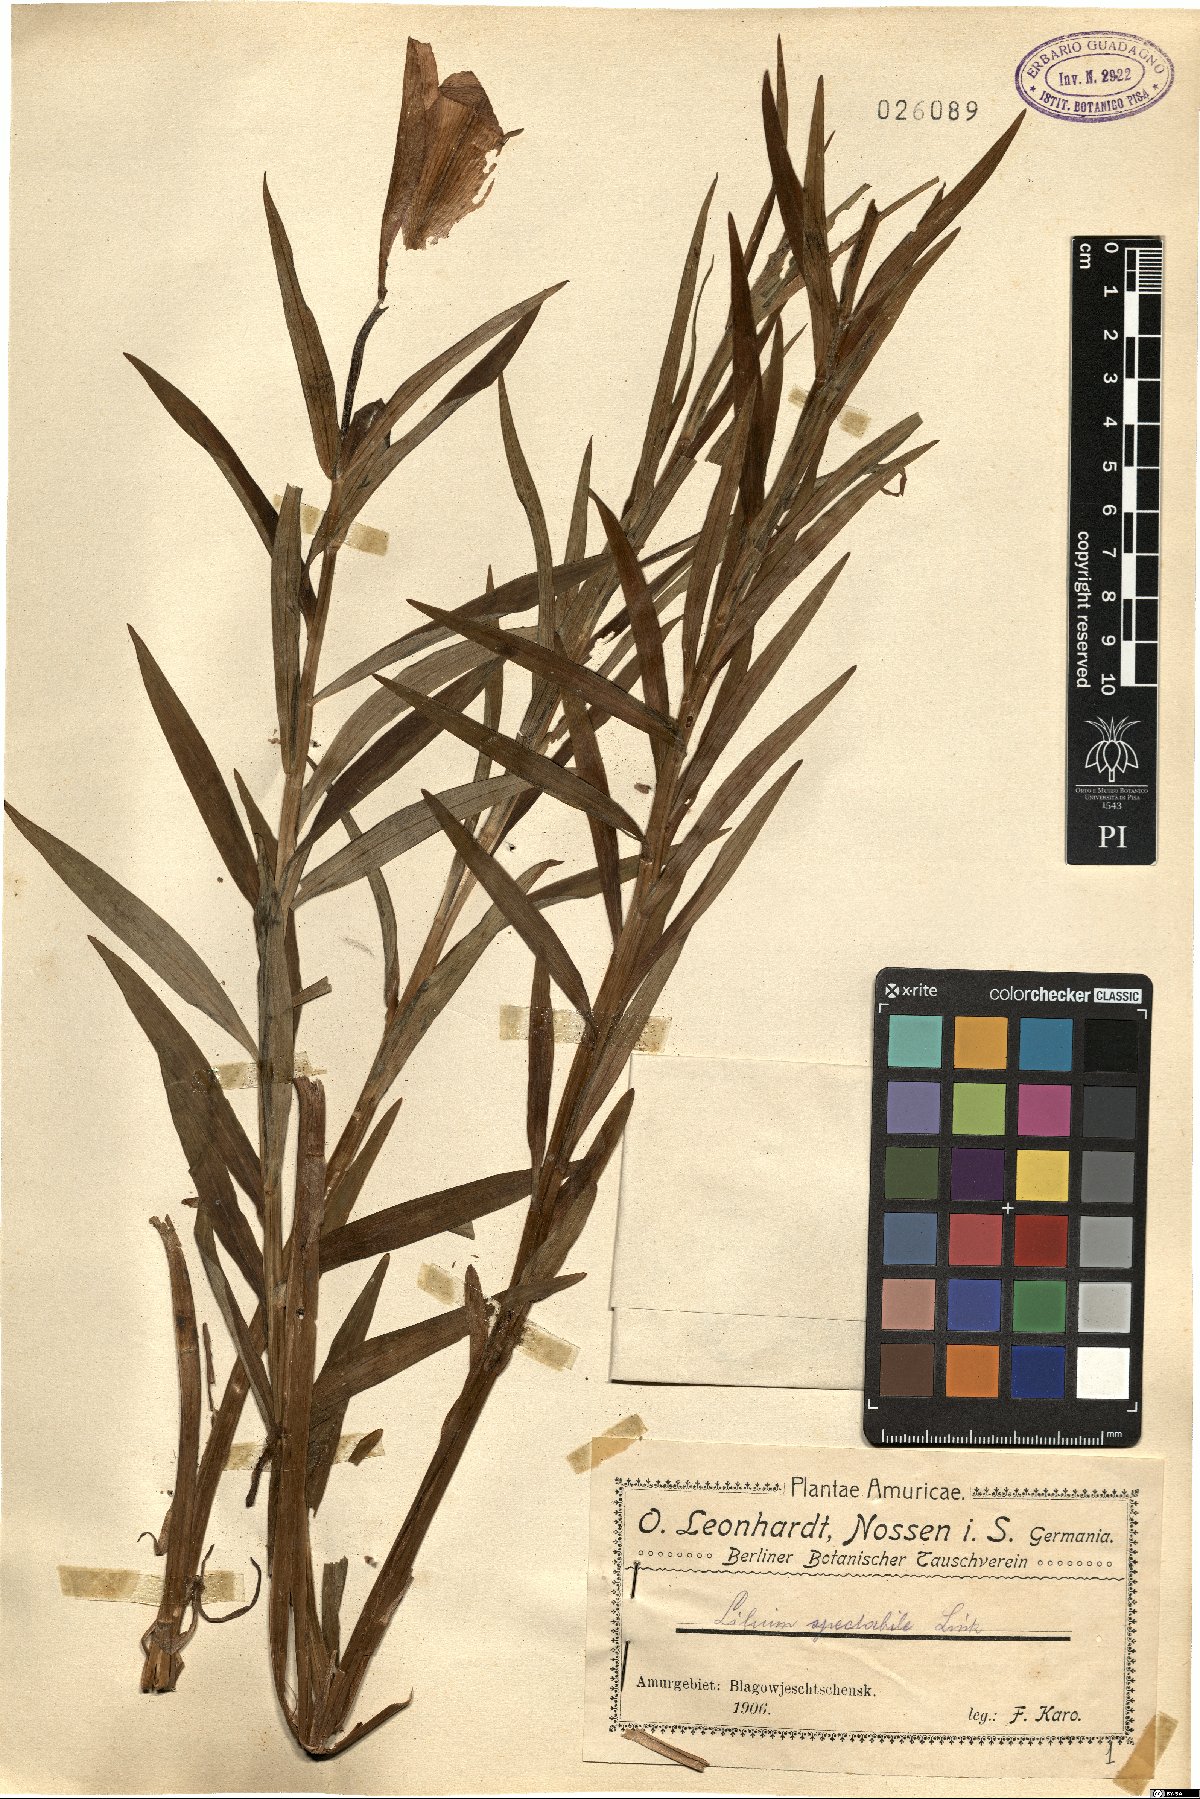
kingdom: Plantae
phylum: Tracheophyta
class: Liliopsida
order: Liliales
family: Liliaceae
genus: Lilium
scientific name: Lilium catesbaei
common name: Catesby's lily
